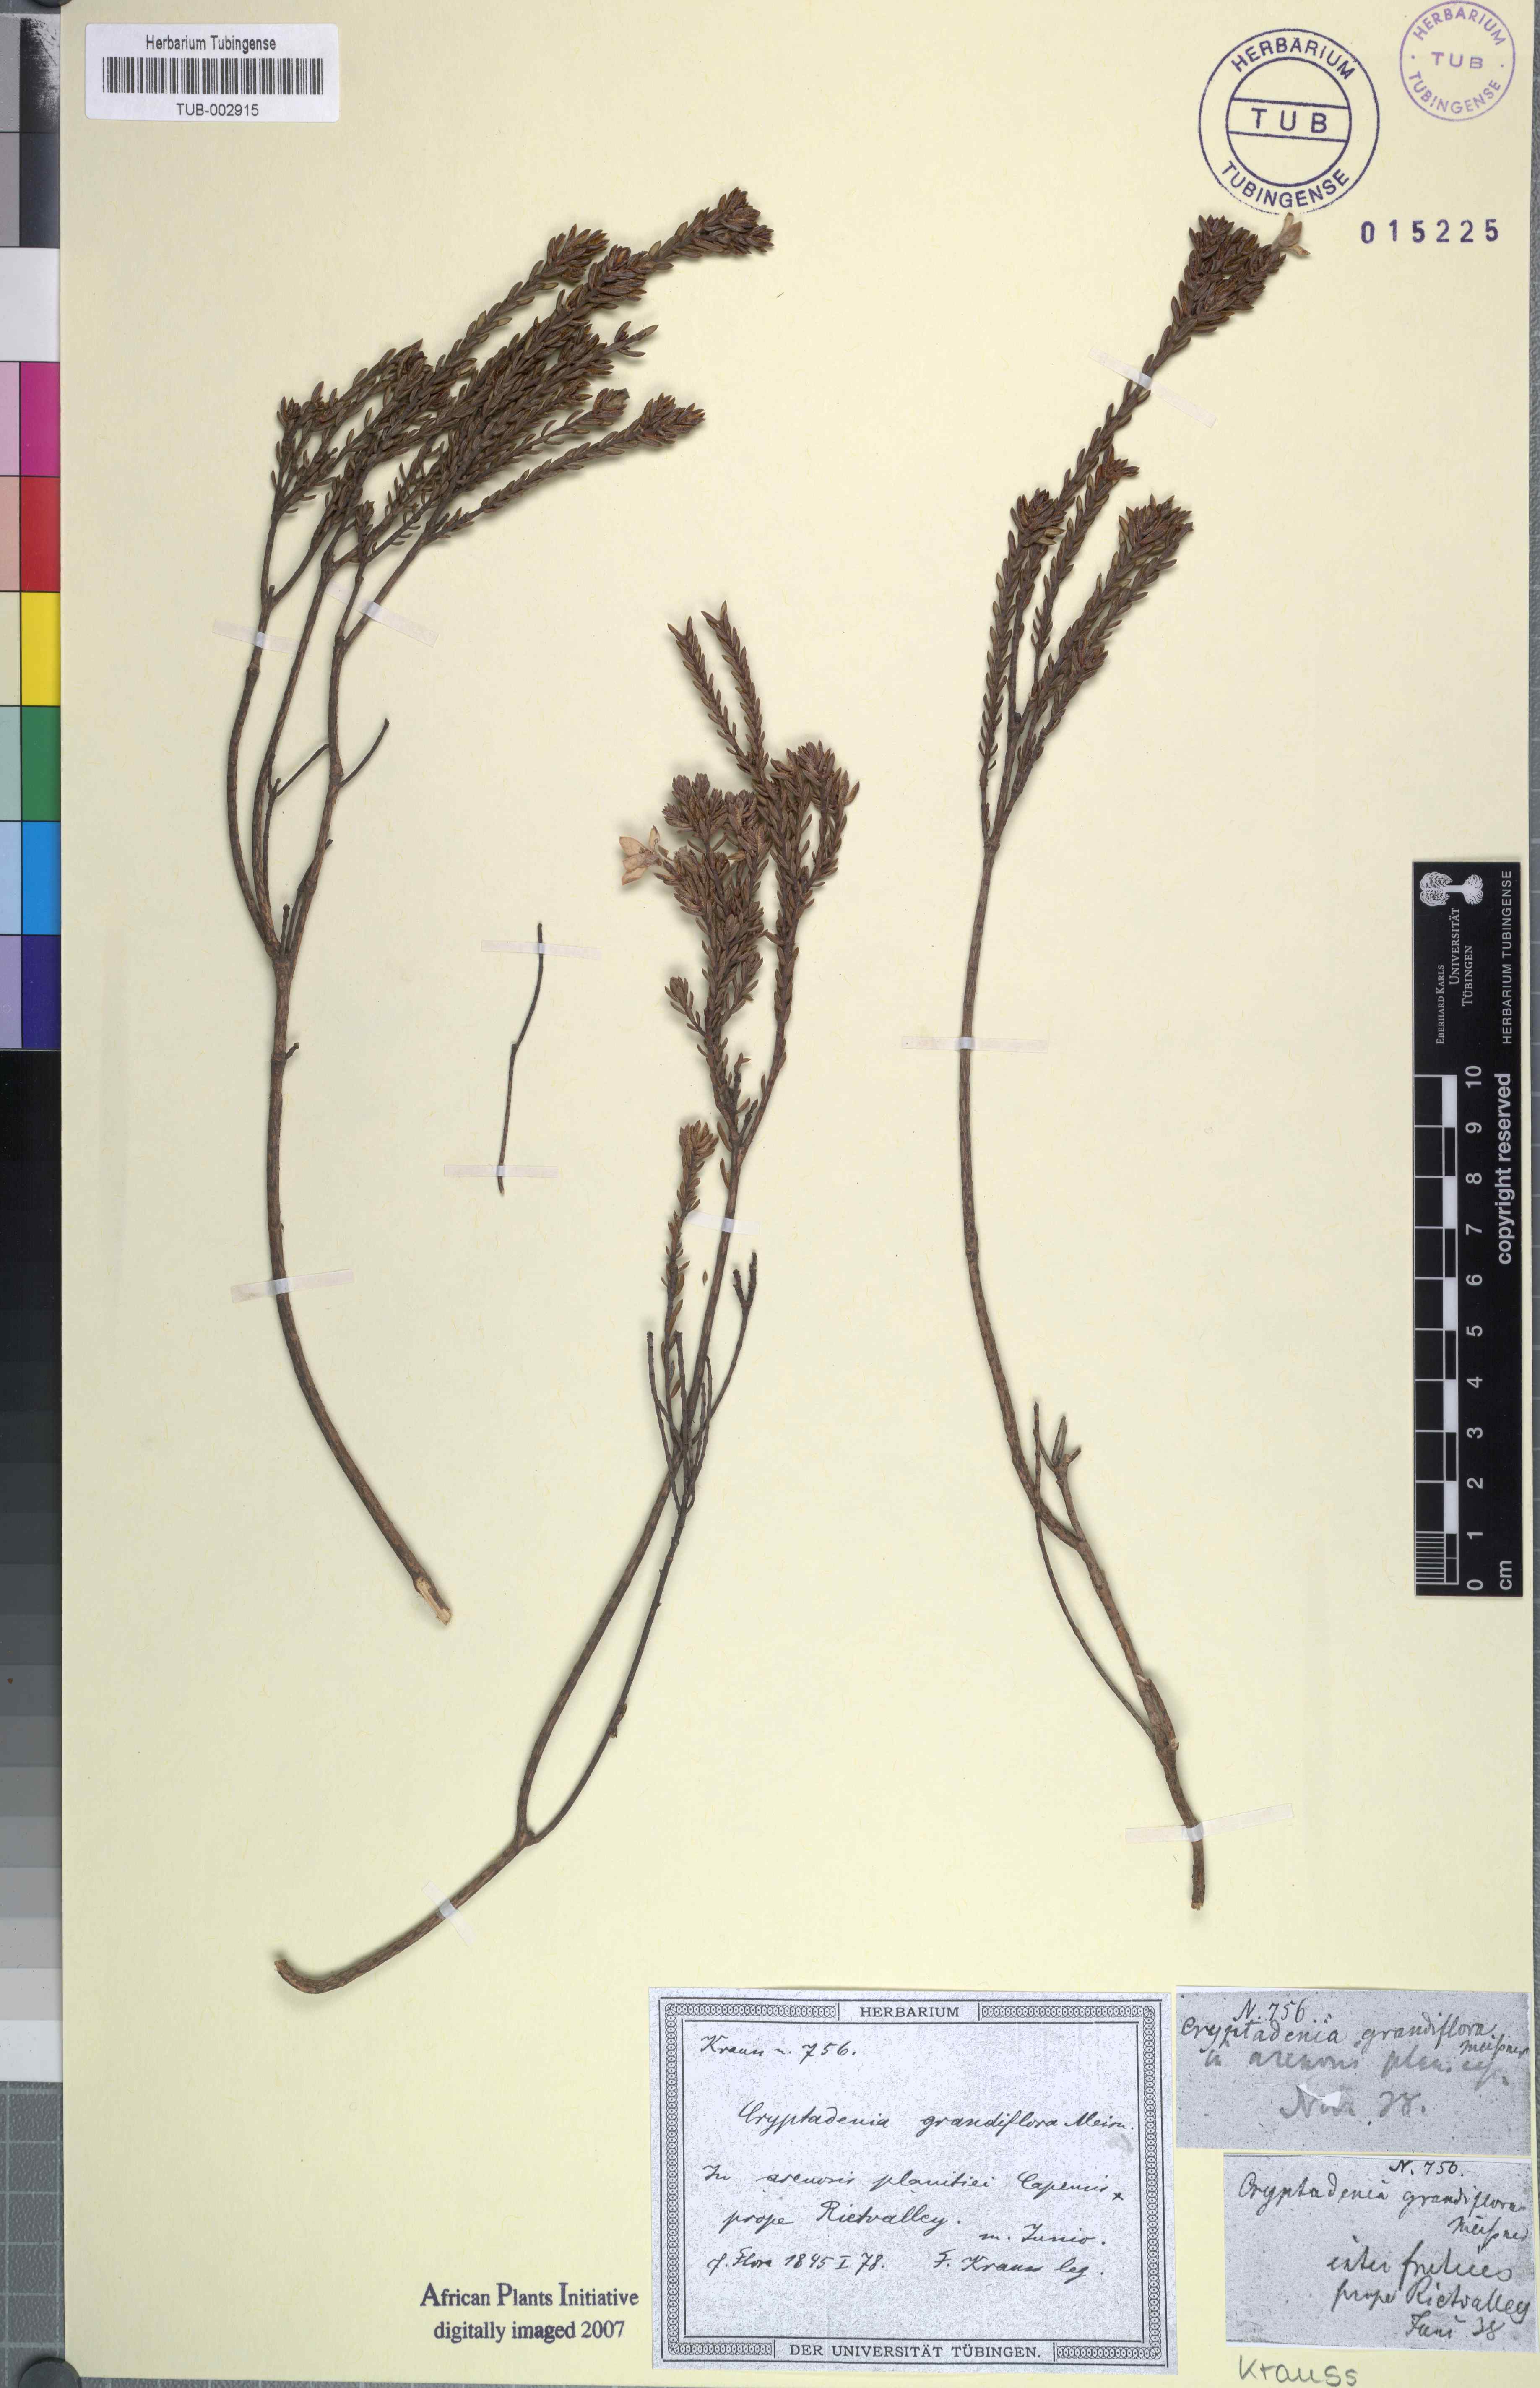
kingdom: Plantae
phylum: Tracheophyta
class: Magnoliopsida
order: Malvales
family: Thymelaeaceae
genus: Lachnaea
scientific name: Lachnaea grandiflora
